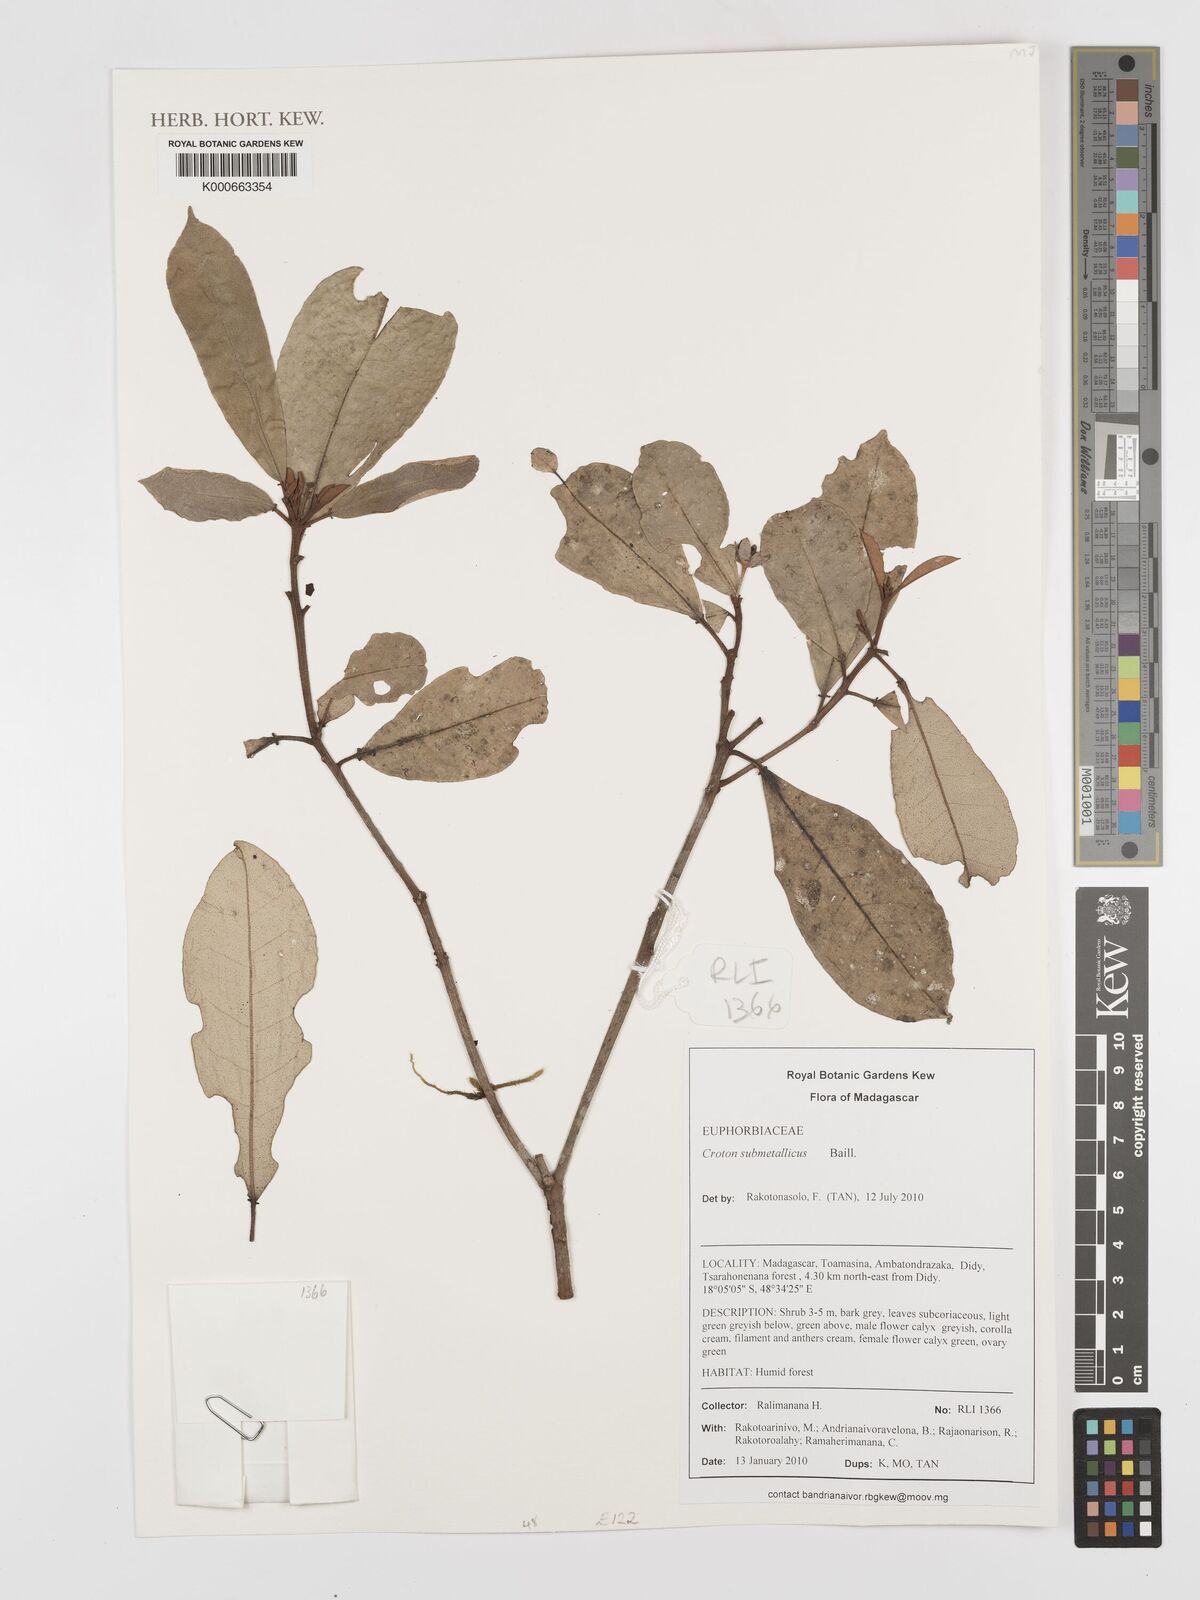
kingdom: Plantae
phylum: Tracheophyta
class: Magnoliopsida
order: Malpighiales
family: Euphorbiaceae
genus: Croton
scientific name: Croton submetallicus
